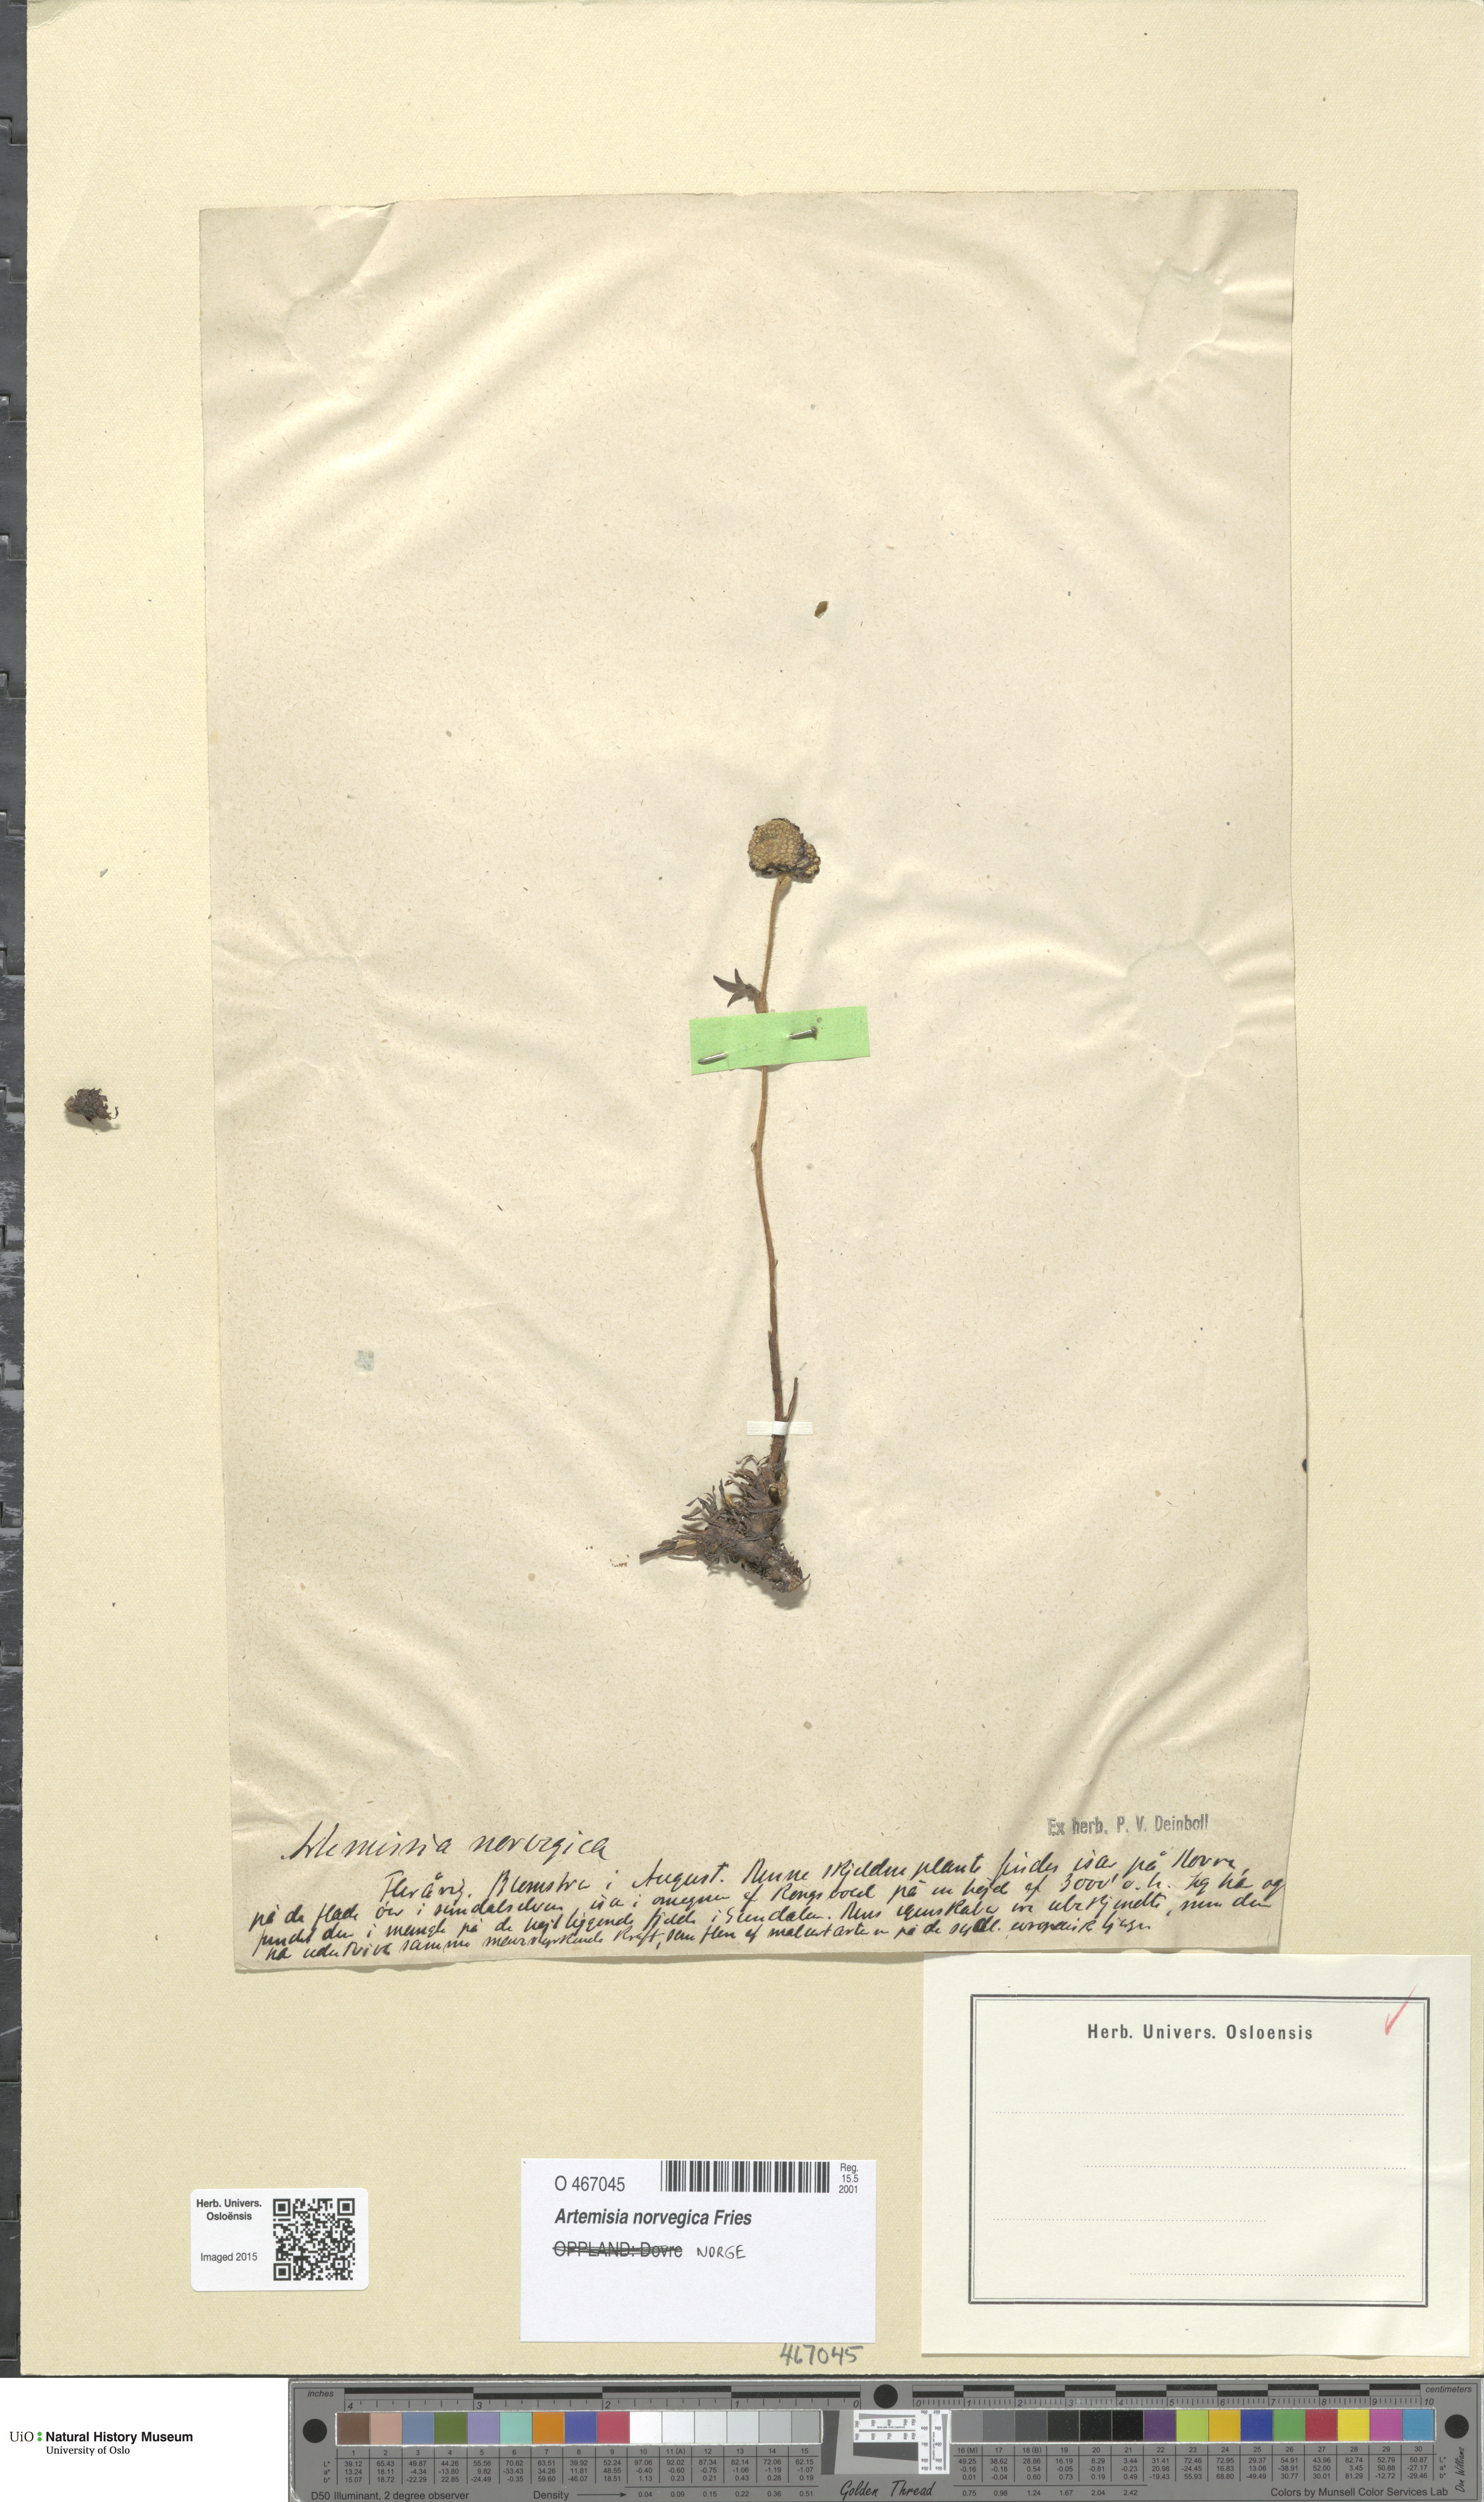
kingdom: Plantae
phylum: Tracheophyta
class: Magnoliopsida
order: Asterales
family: Asteraceae
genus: Artemisia
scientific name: Artemisia norvegica
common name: Norwegian mugwort
